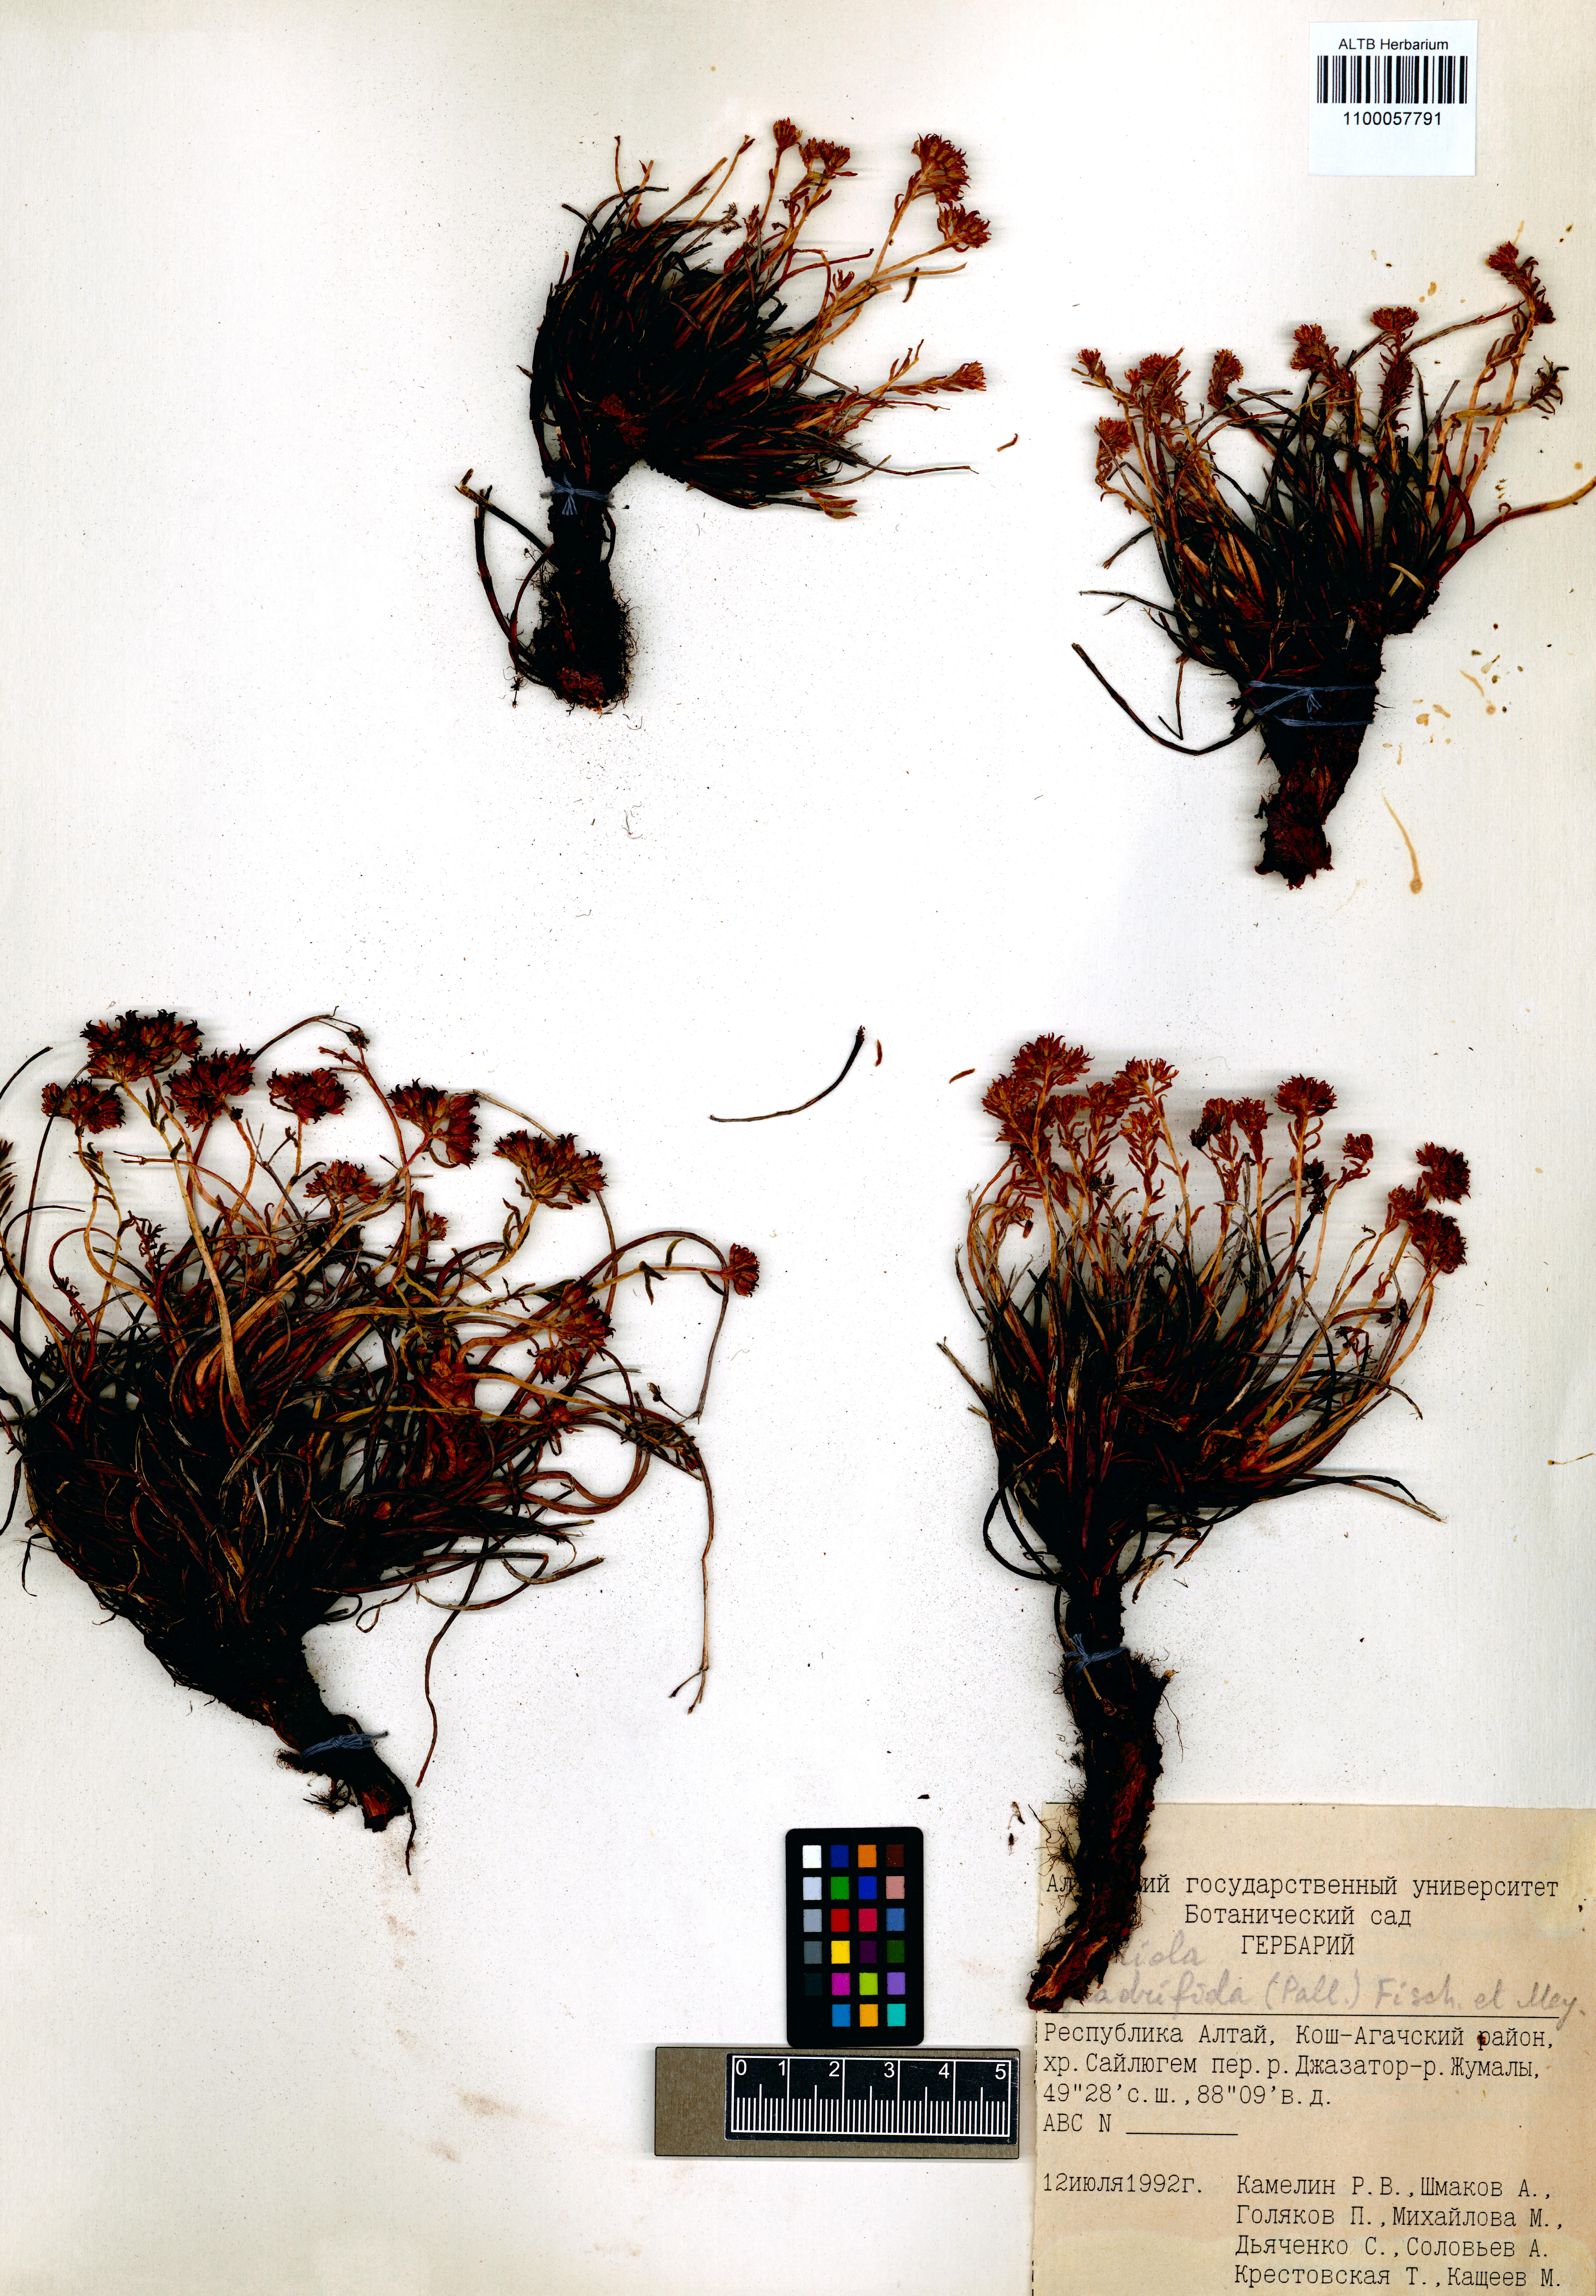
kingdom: Plantae
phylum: Tracheophyta
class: Magnoliopsida
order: Saxifragales
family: Crassulaceae
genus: Rhodiola
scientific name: Rhodiola quadrifida
